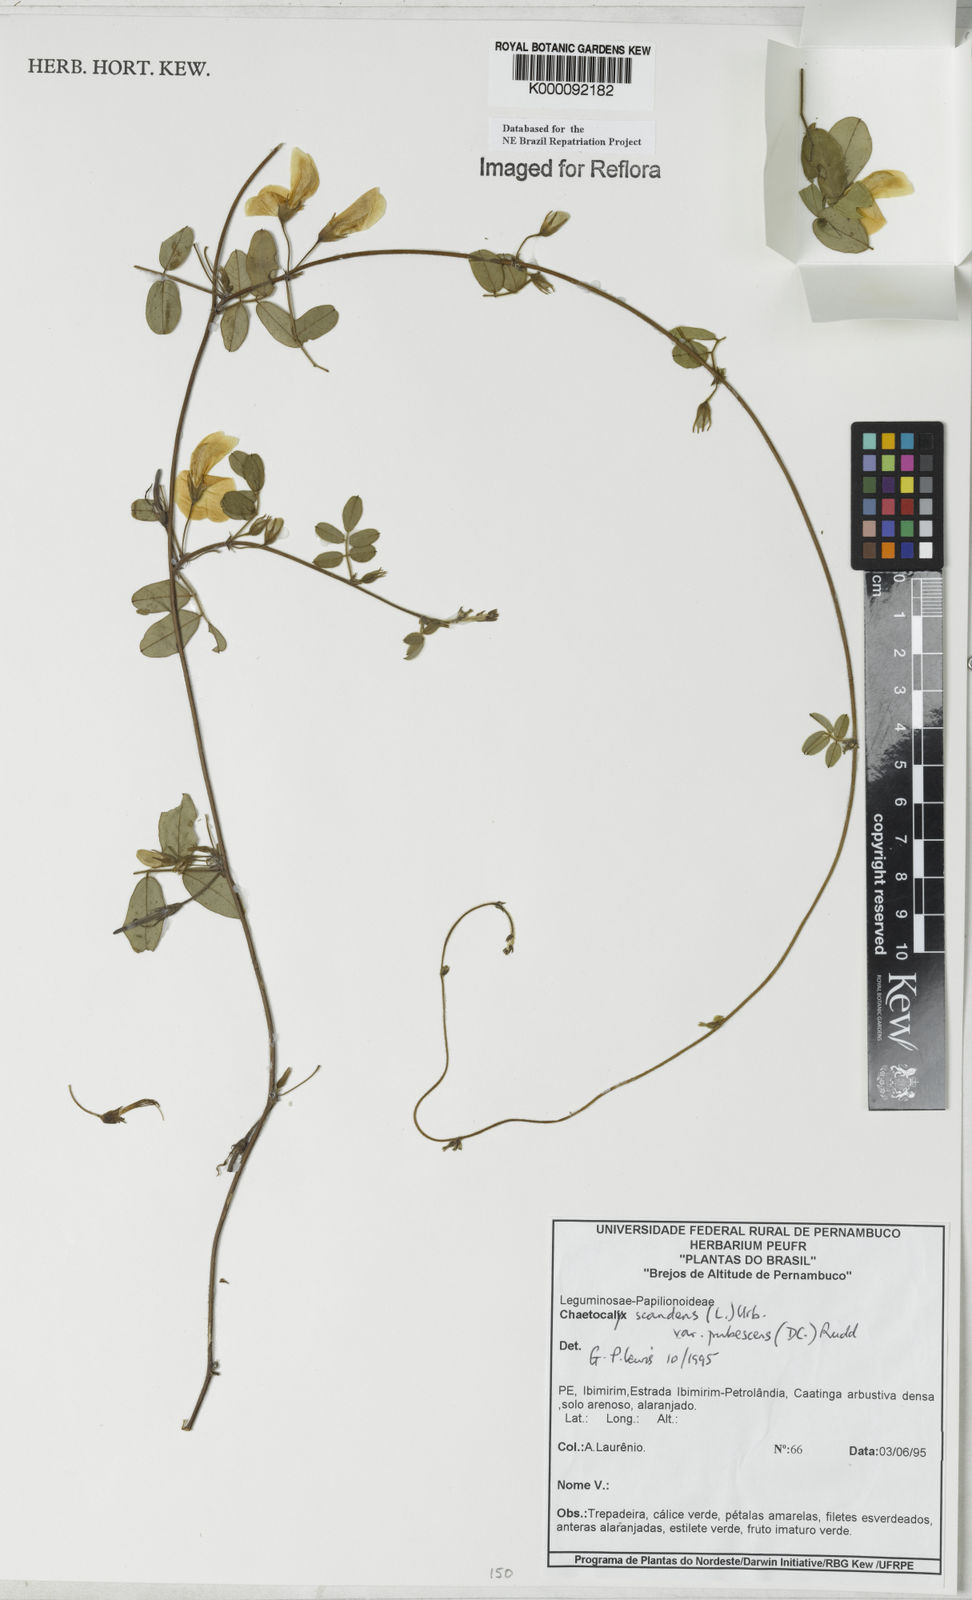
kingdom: Plantae
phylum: Tracheophyta
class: Magnoliopsida
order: Fabales
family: Fabaceae
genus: Nissolia
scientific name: Nissolia vincentina
